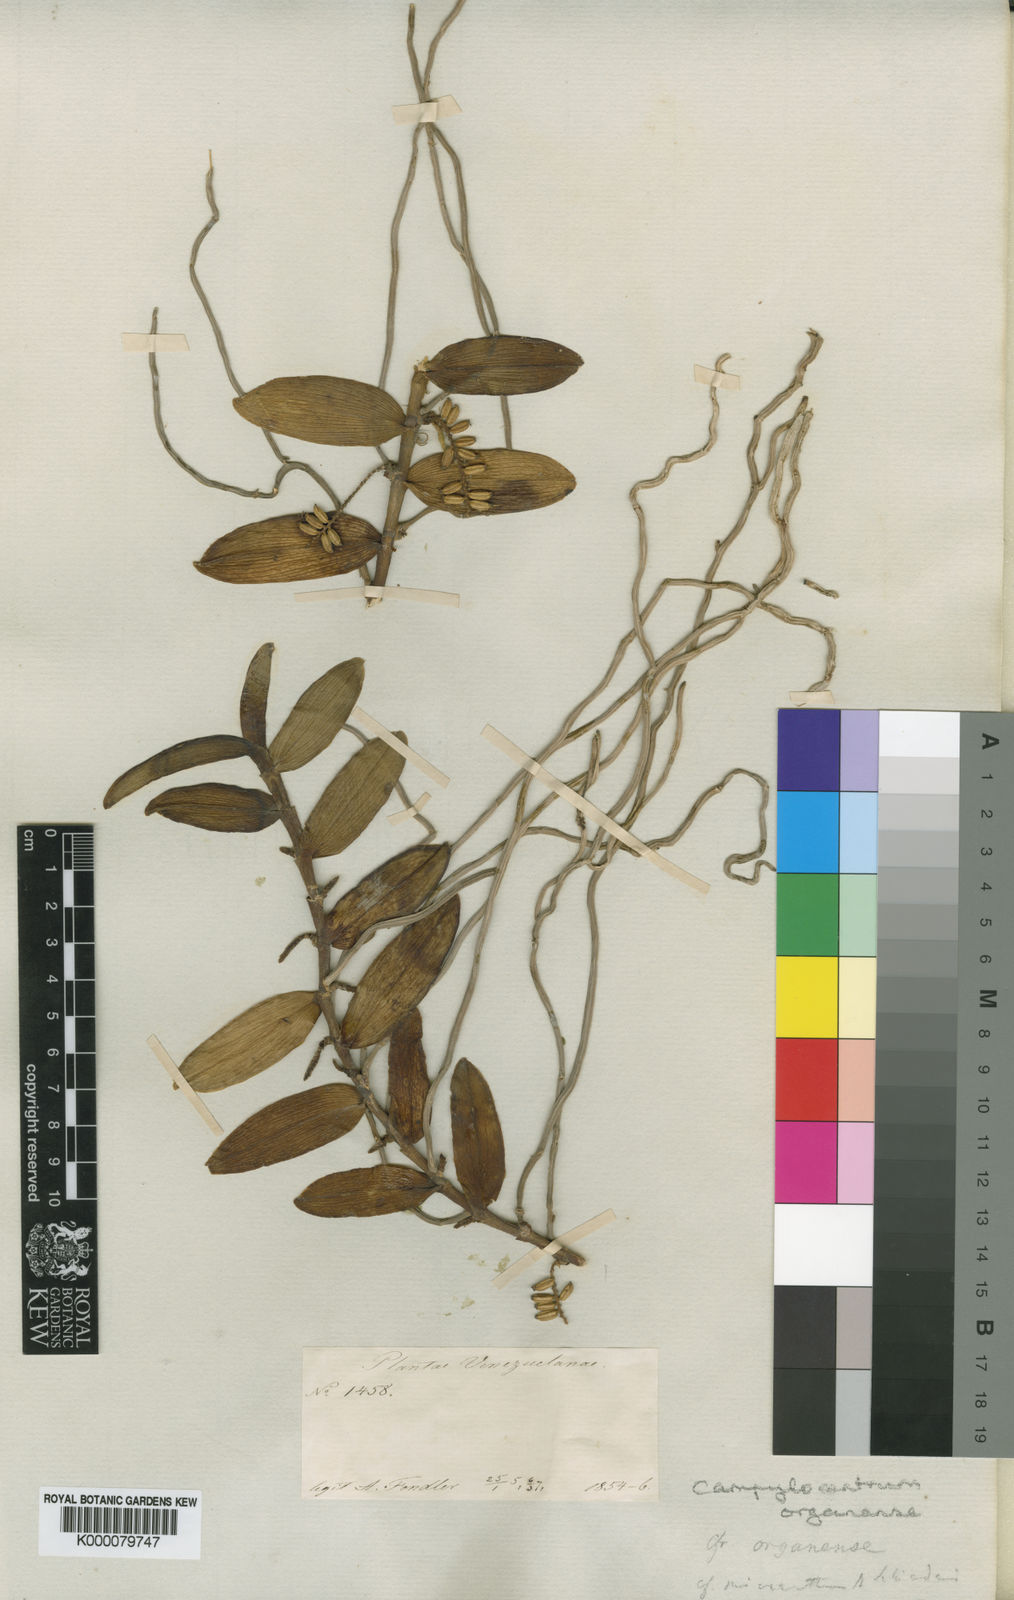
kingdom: Plantae
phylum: Tracheophyta
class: Liliopsida
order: Asparagales
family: Orchidaceae
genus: Campylocentrum
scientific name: Campylocentrum micranthum
